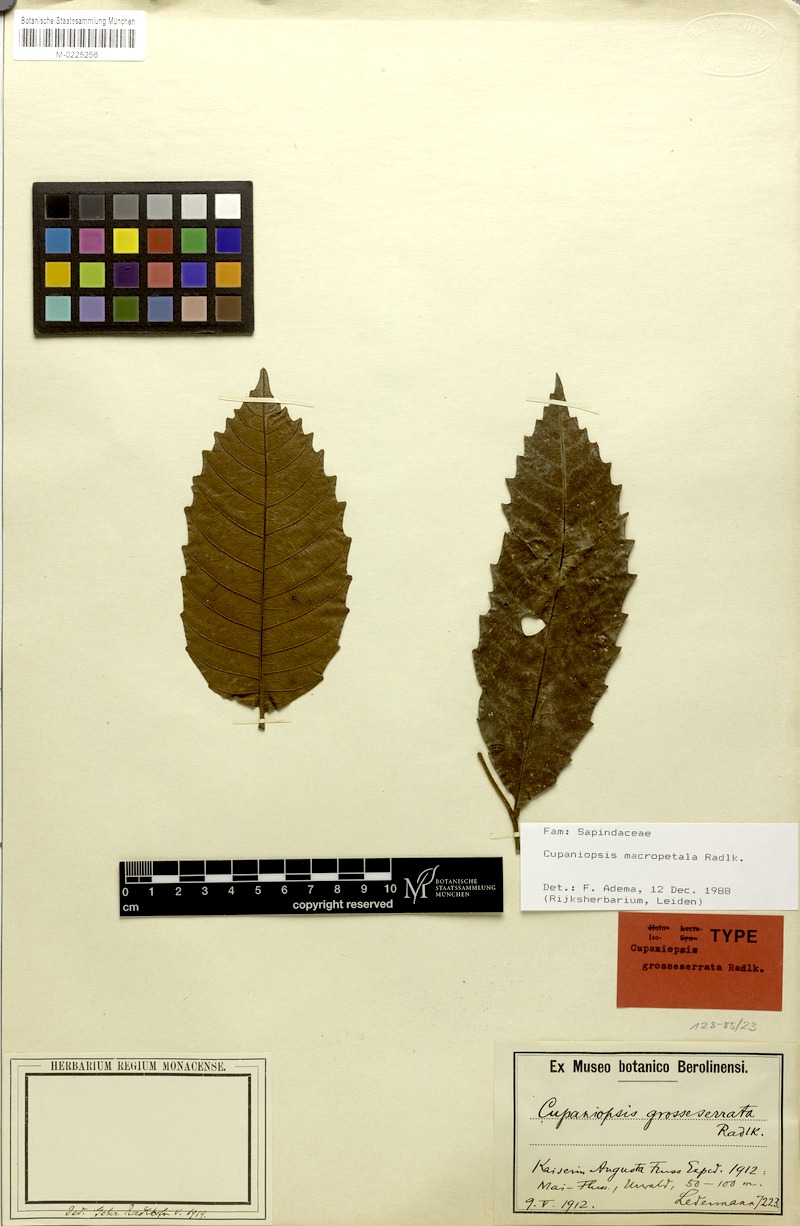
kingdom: Plantae
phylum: Tracheophyta
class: Magnoliopsida
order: Sapindales
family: Sapindaceae
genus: Cupaniopsis
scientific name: Cupaniopsis macropetala
